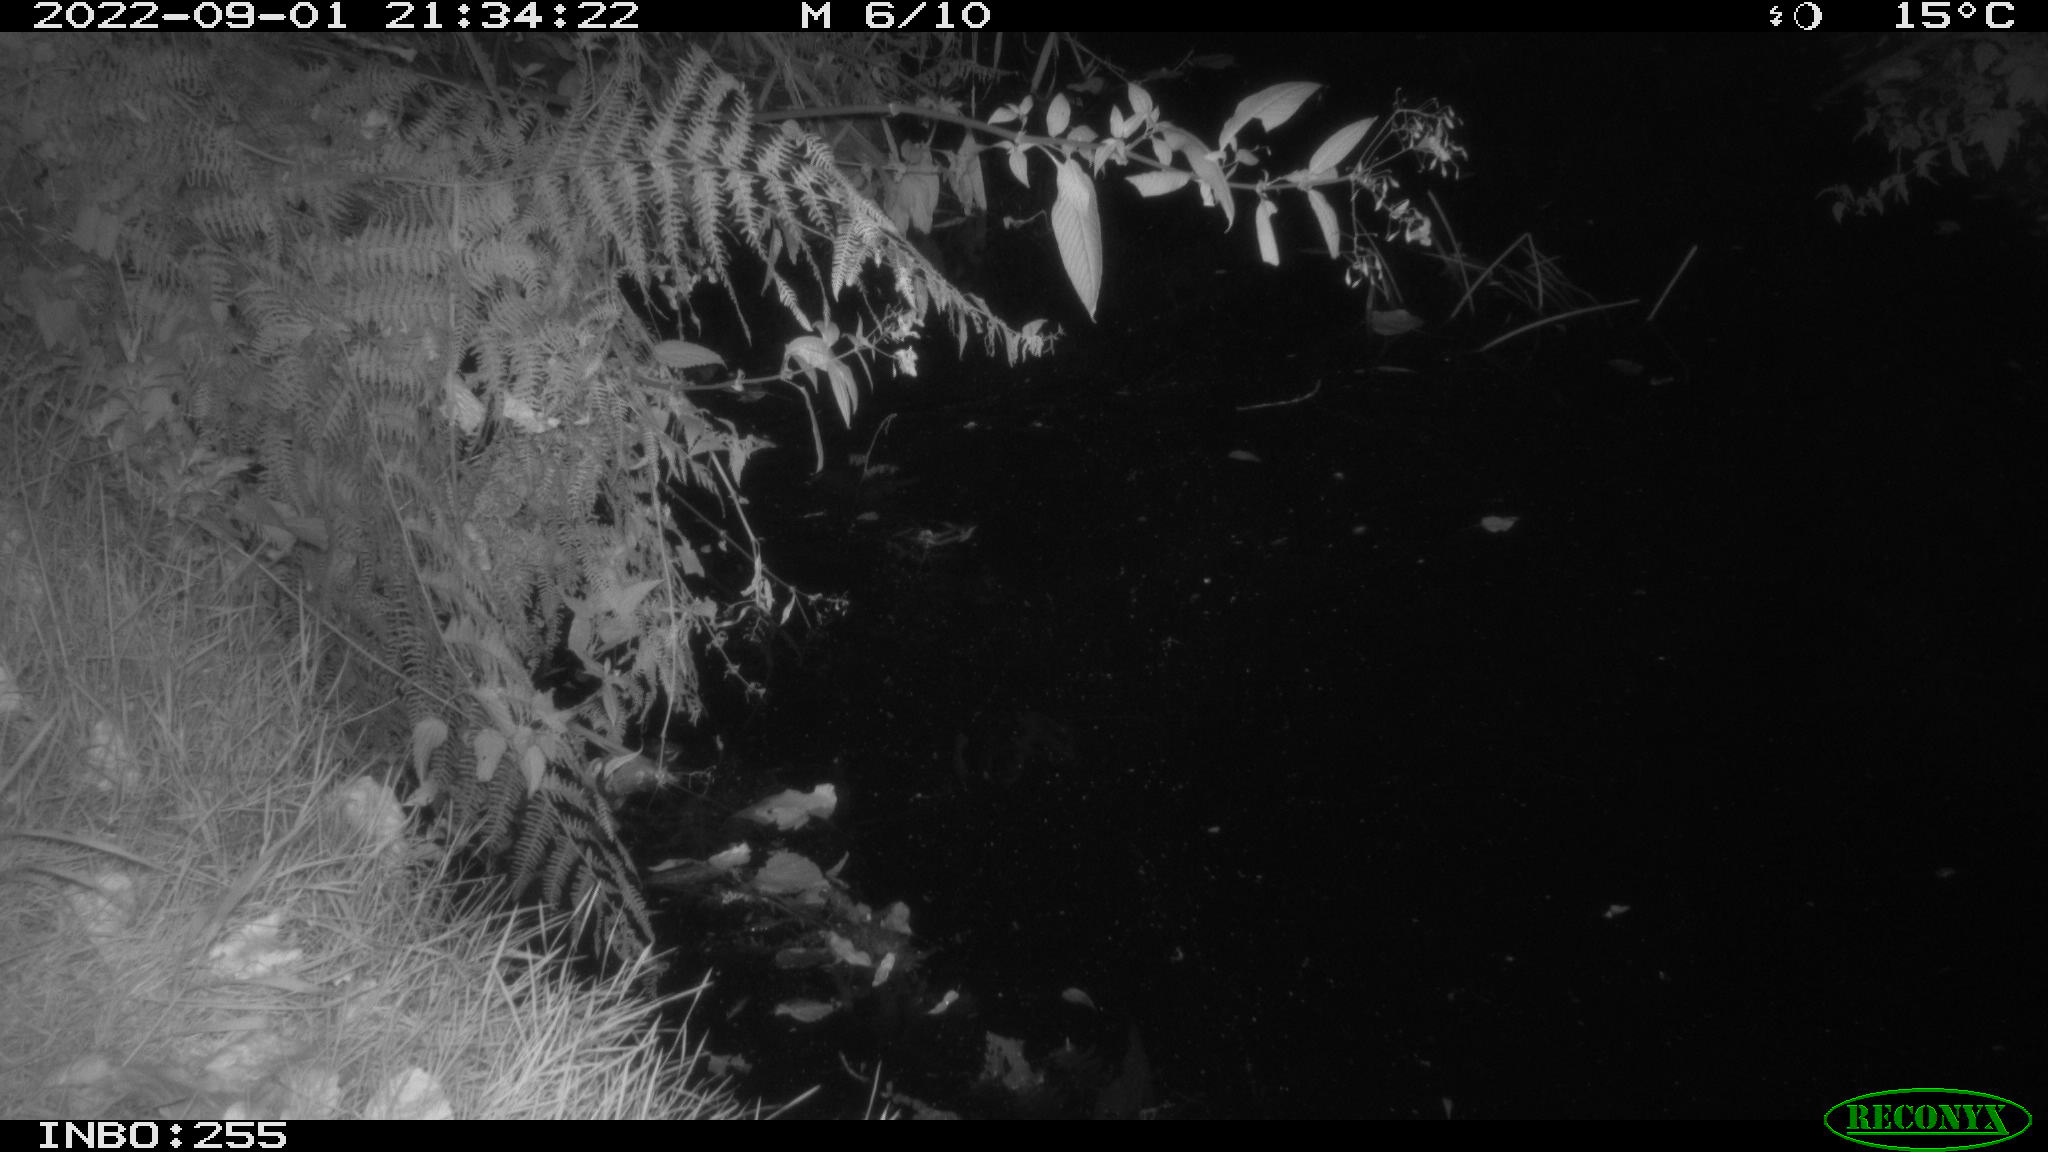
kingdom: Animalia
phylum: Chordata
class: Mammalia
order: Rodentia
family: Muridae
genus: Rattus
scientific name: Rattus norvegicus
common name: Brown rat
